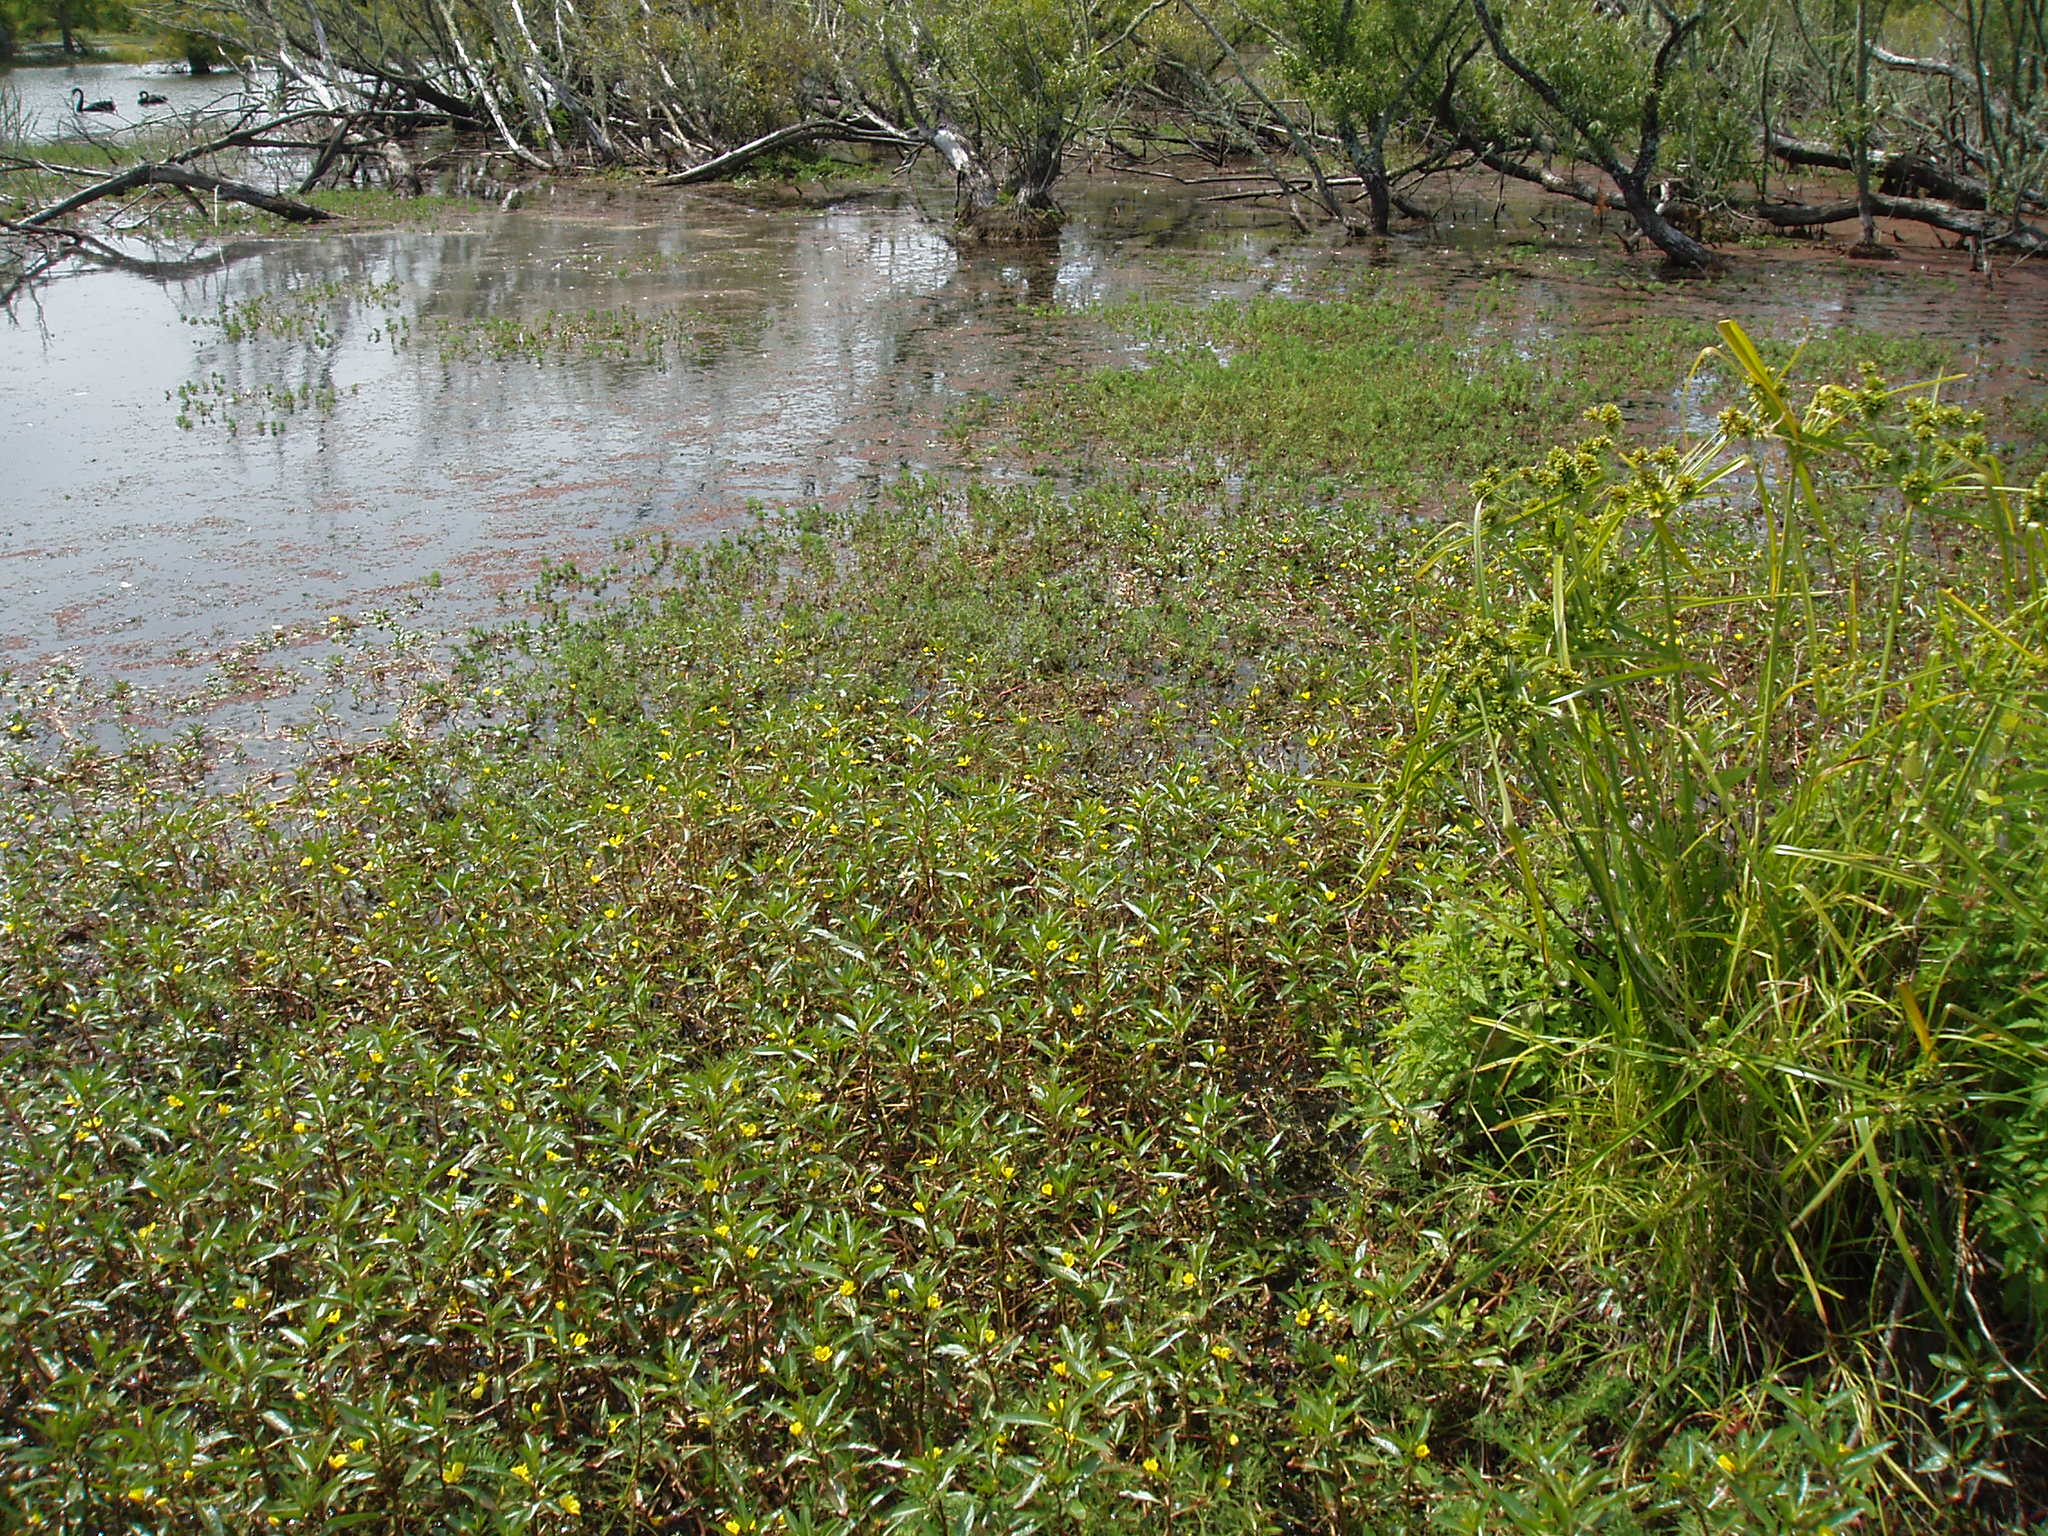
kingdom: Plantae
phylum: Tracheophyta
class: Magnoliopsida
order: Myrtales
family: Onagraceae
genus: Ludwigia
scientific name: Ludwigia peploides
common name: Floating primrose-willow
